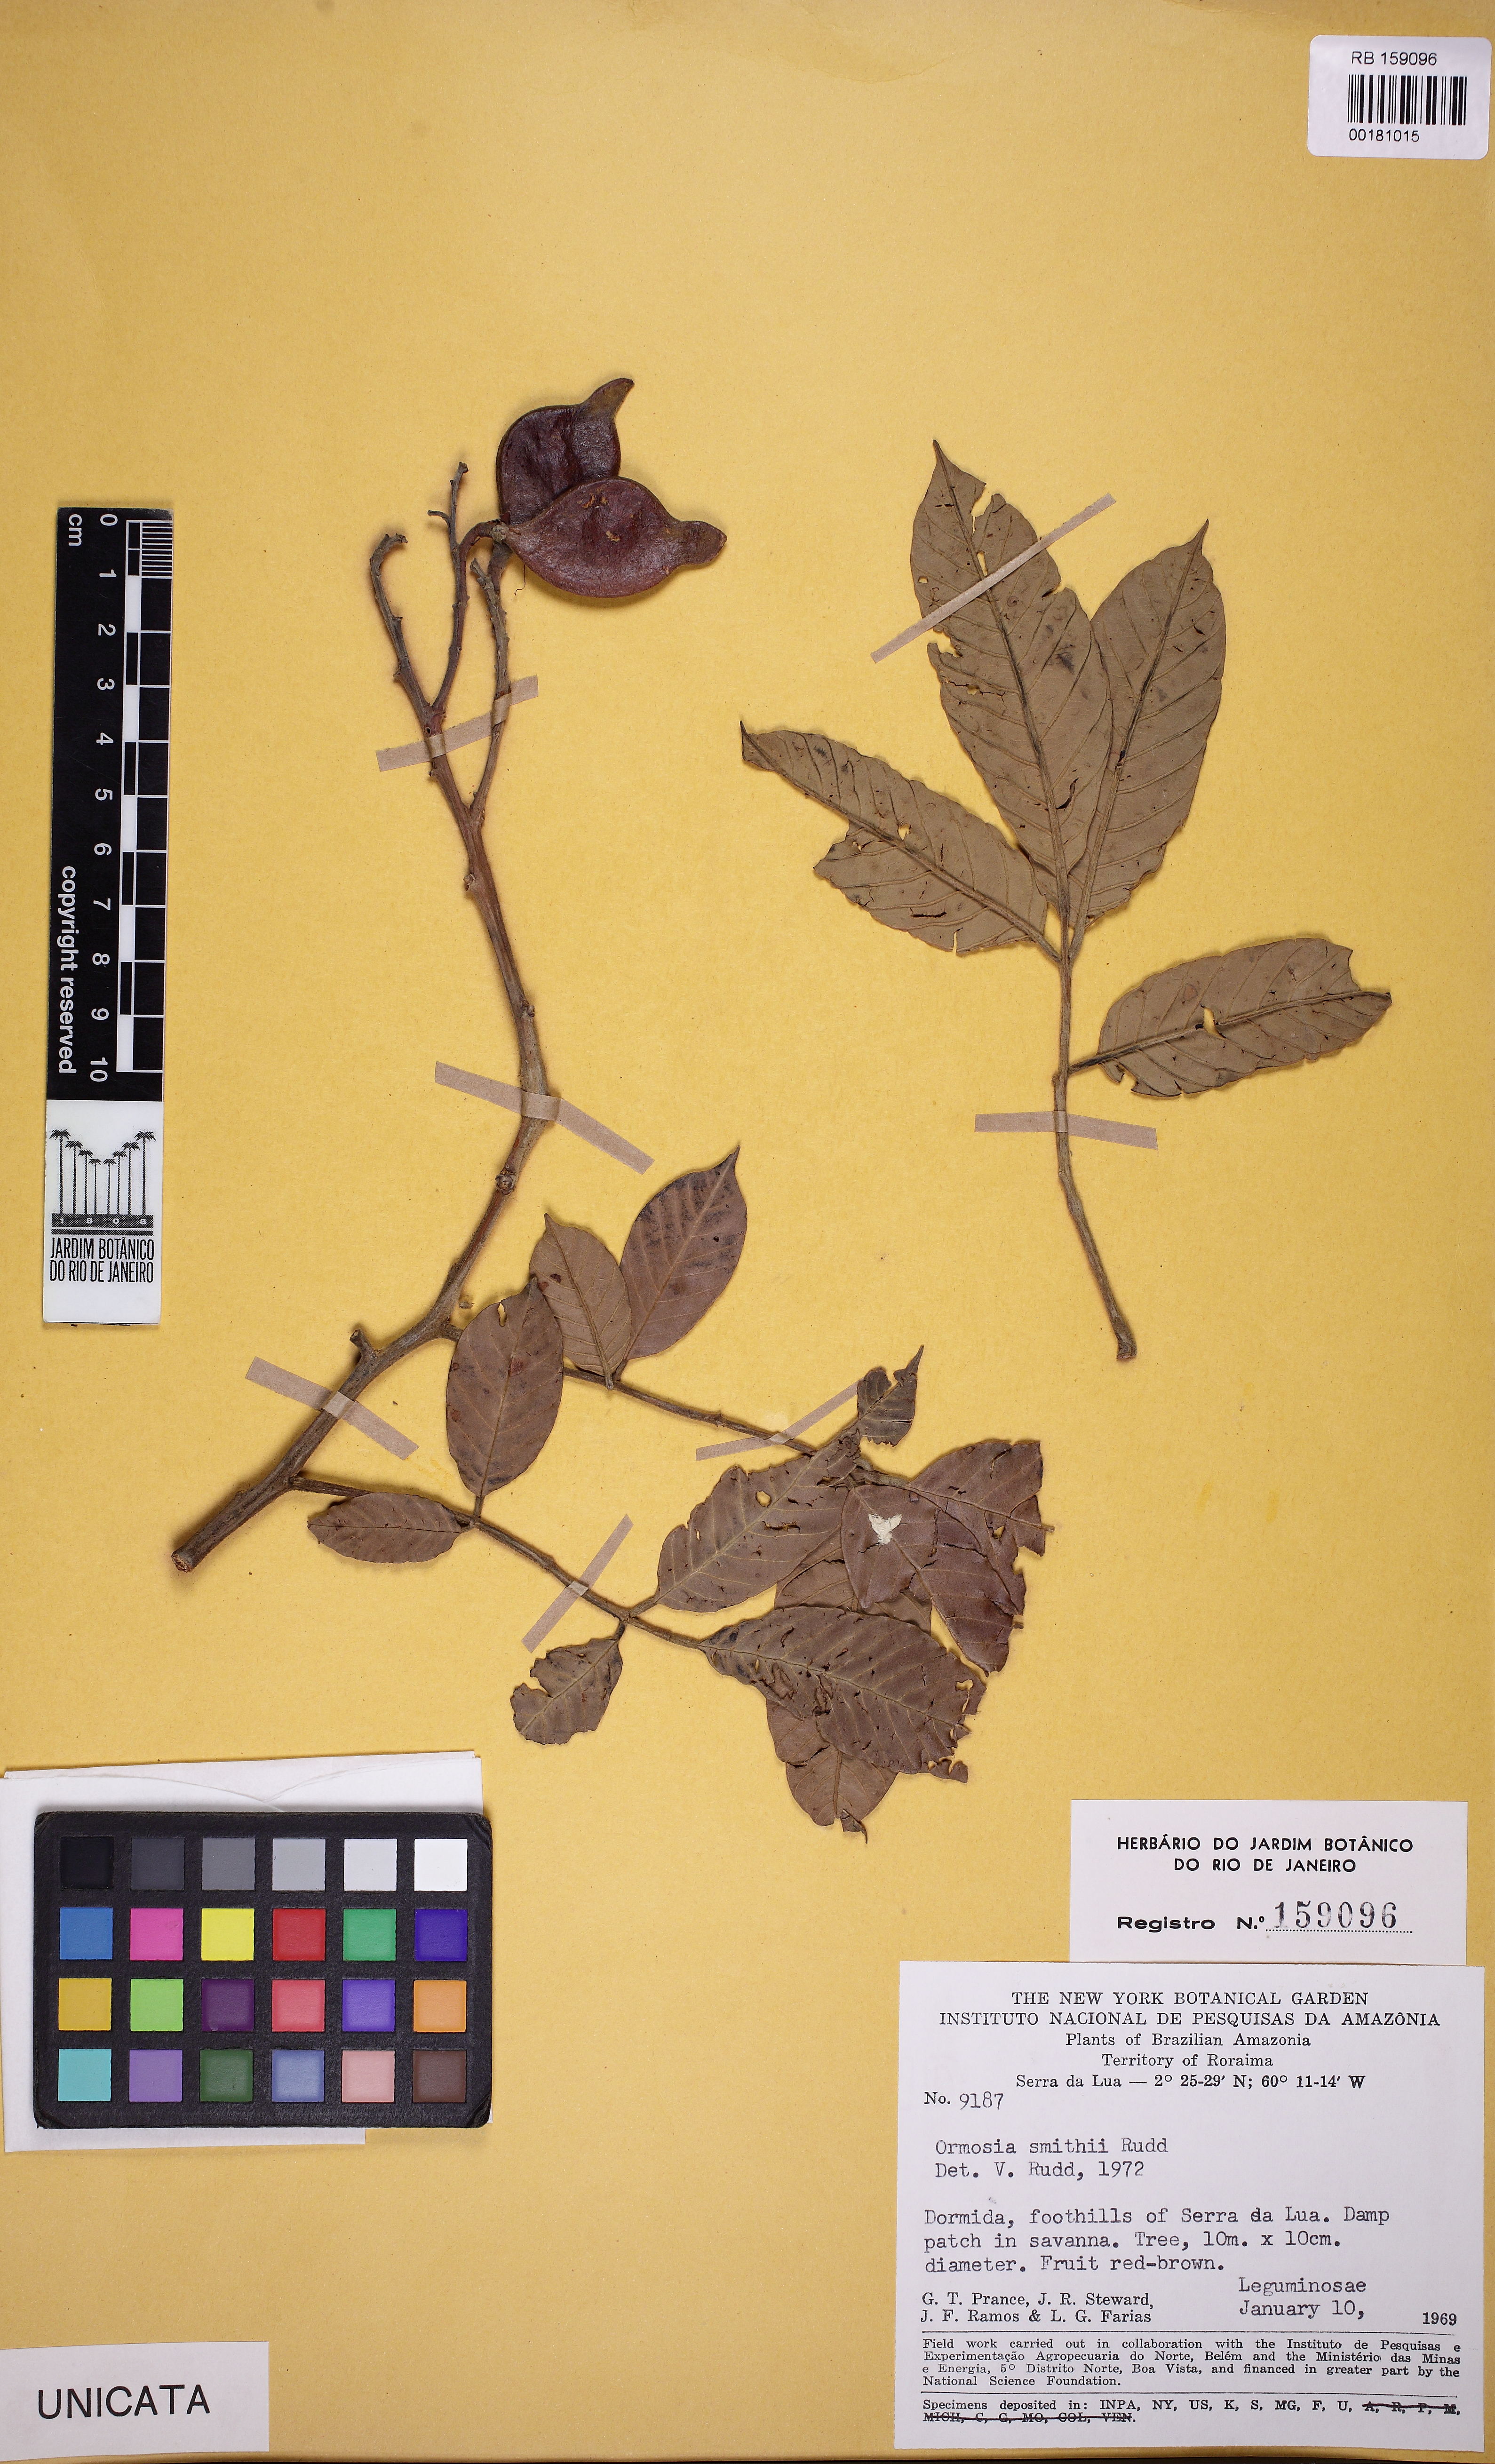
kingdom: Plantae
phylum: Tracheophyta
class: Magnoliopsida
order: Fabales
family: Fabaceae
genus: Ormosia
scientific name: Ormosia smithii
